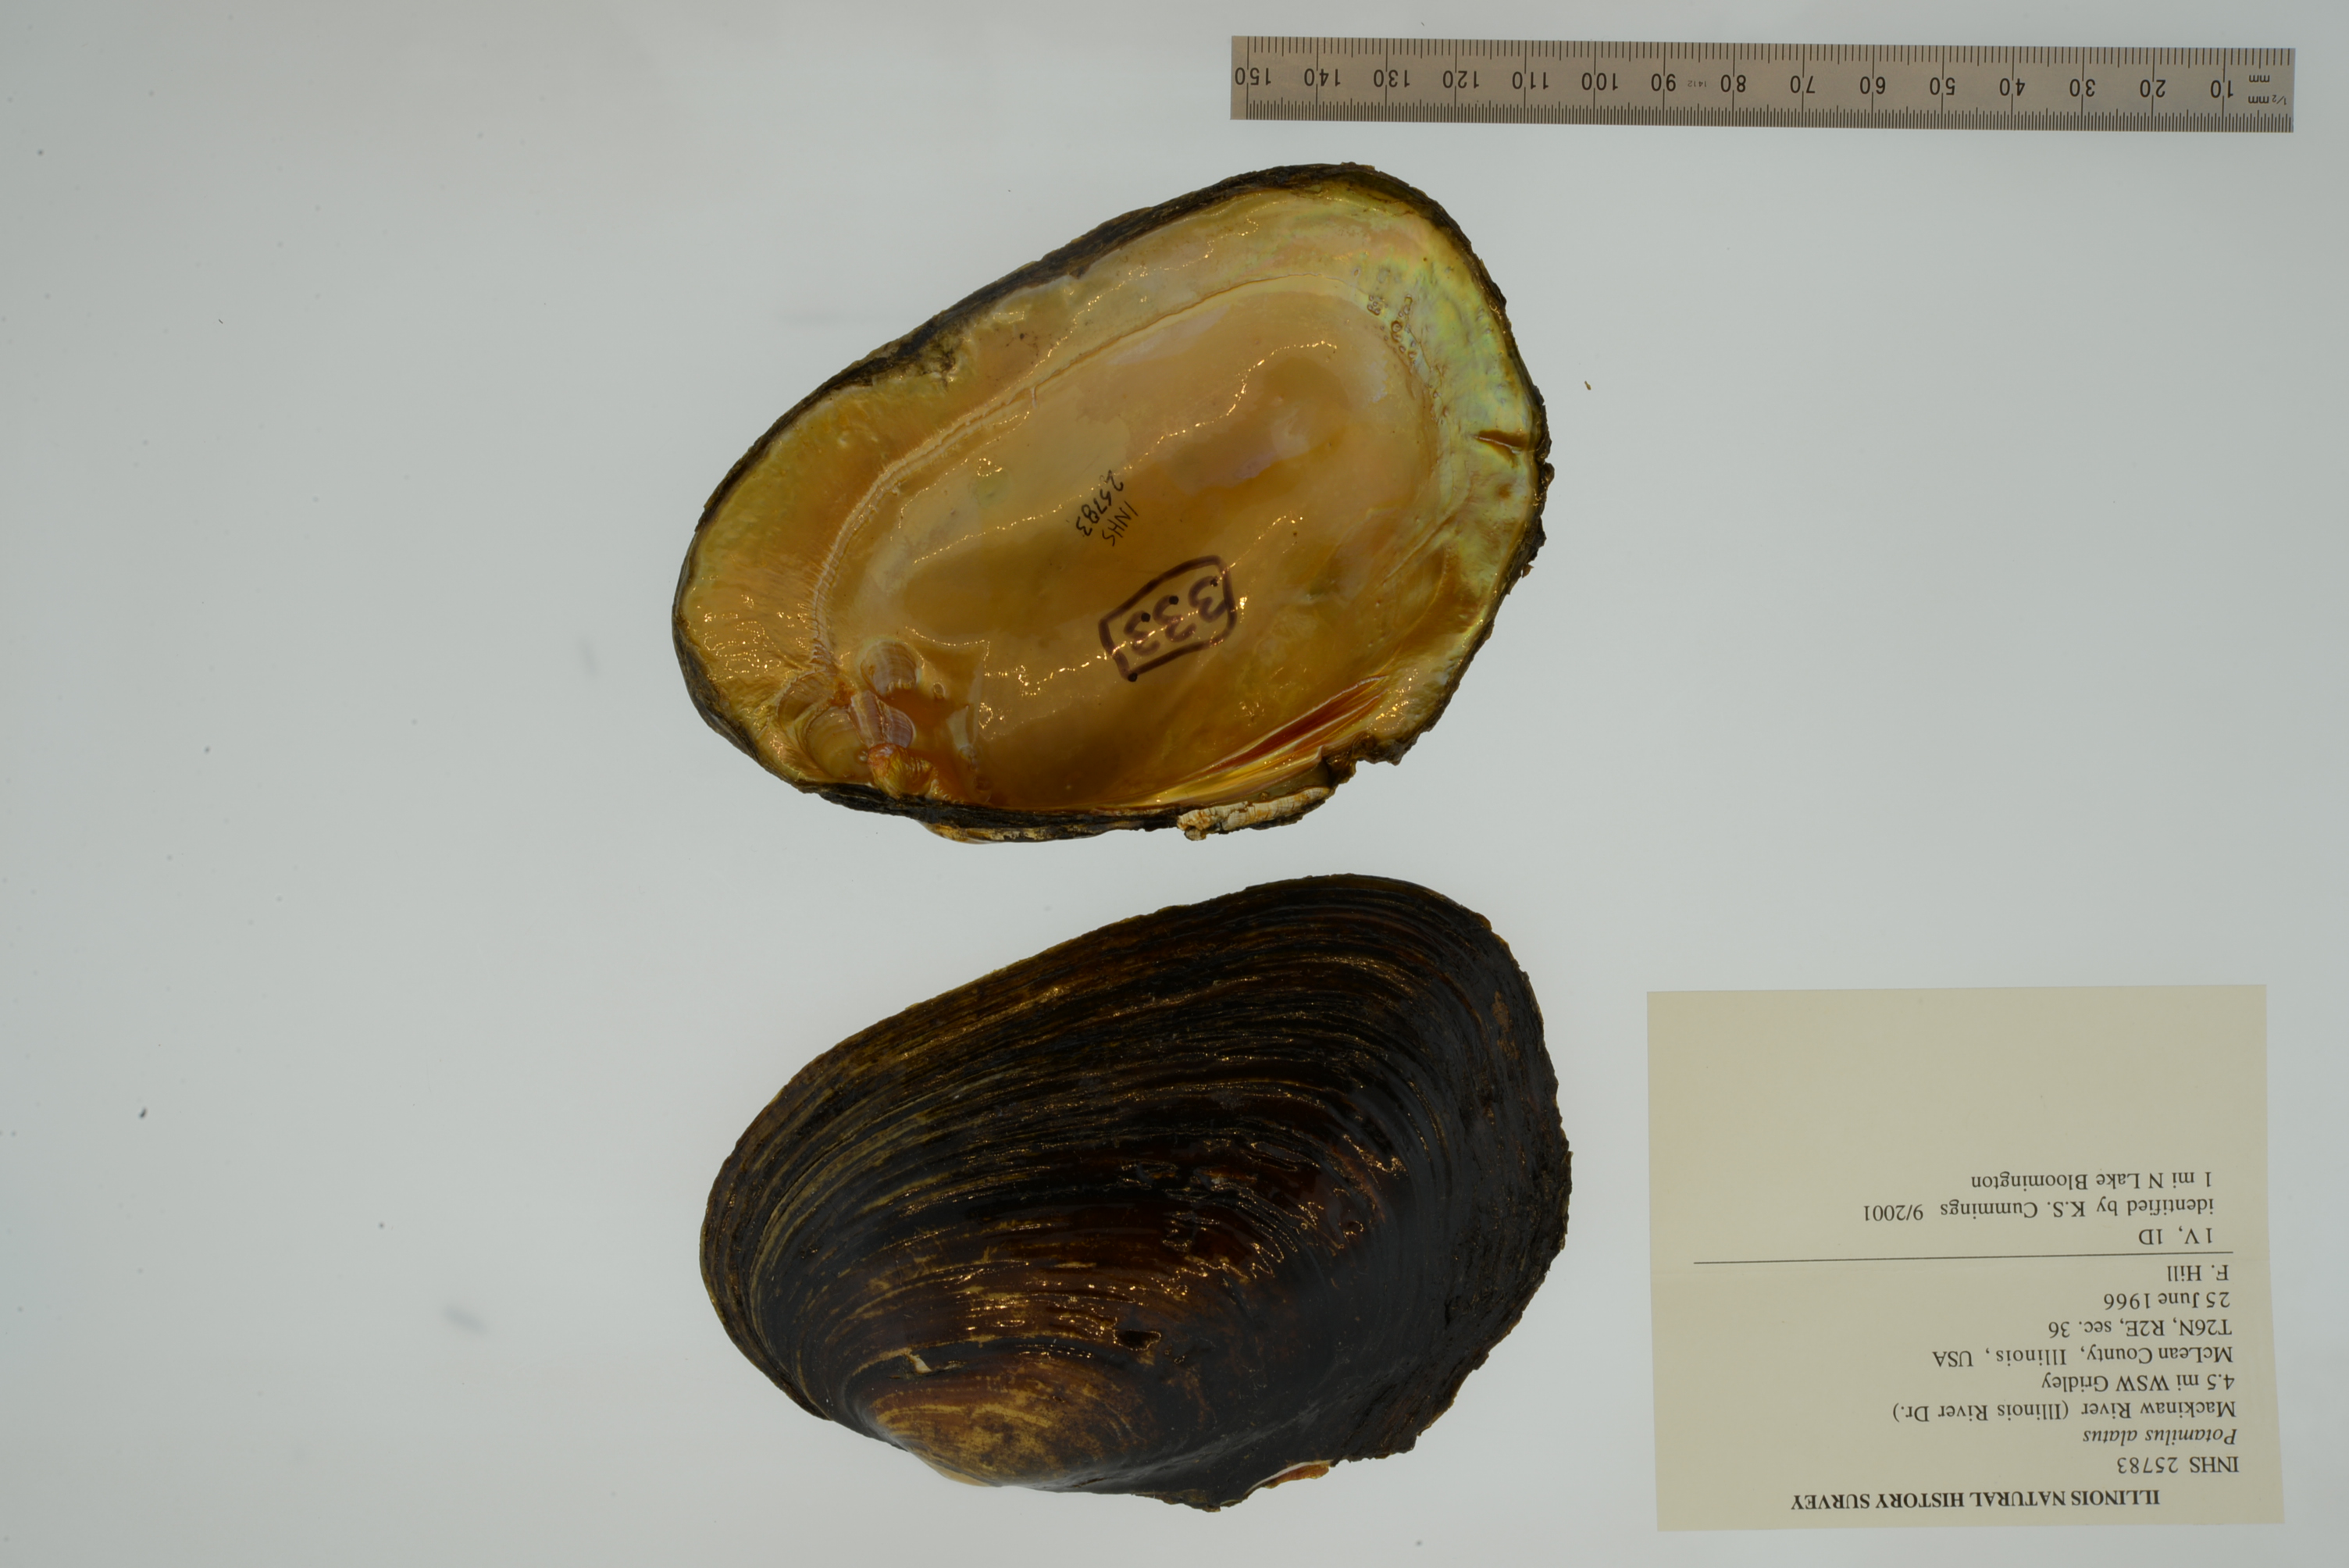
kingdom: Animalia
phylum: Mollusca
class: Bivalvia
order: Unionida
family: Unionidae
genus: Potamilus
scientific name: Potamilus alatus
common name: Pink heelsplitter
